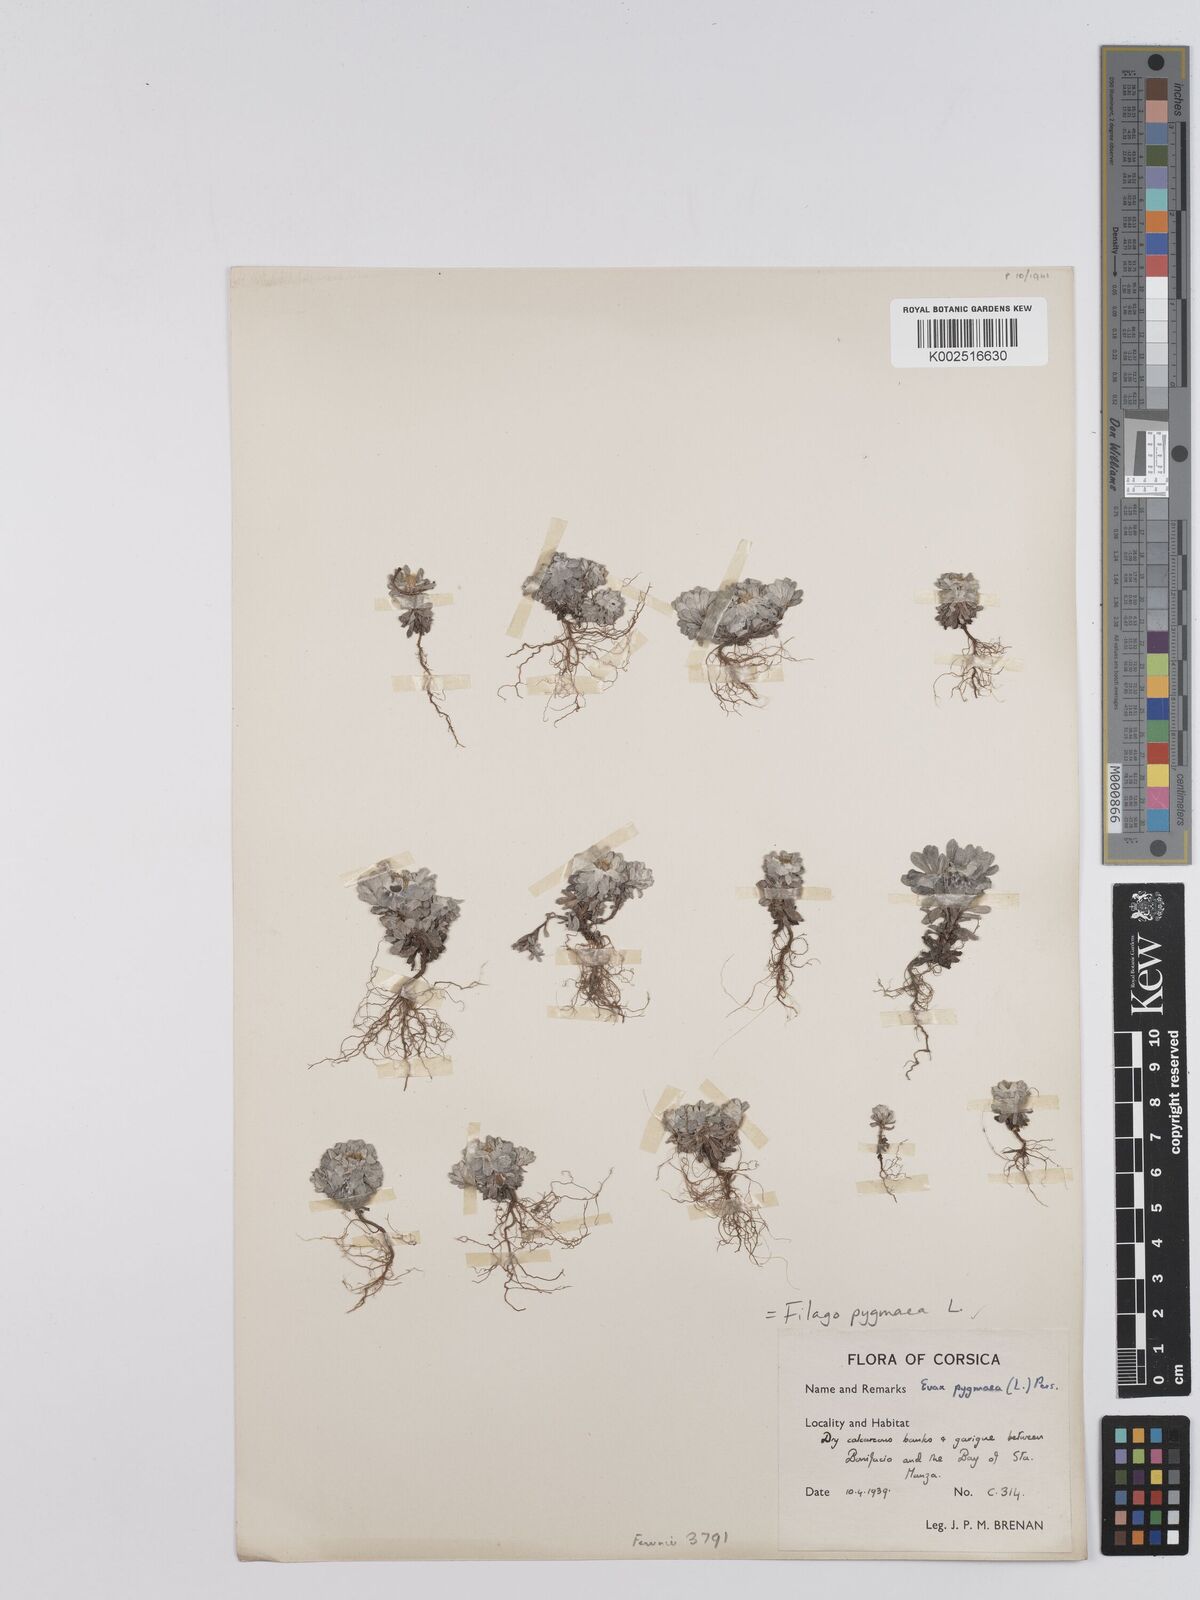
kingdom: Plantae
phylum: Tracheophyta
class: Magnoliopsida
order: Asterales
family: Asteraceae
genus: Filago
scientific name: Filago pygmaea
